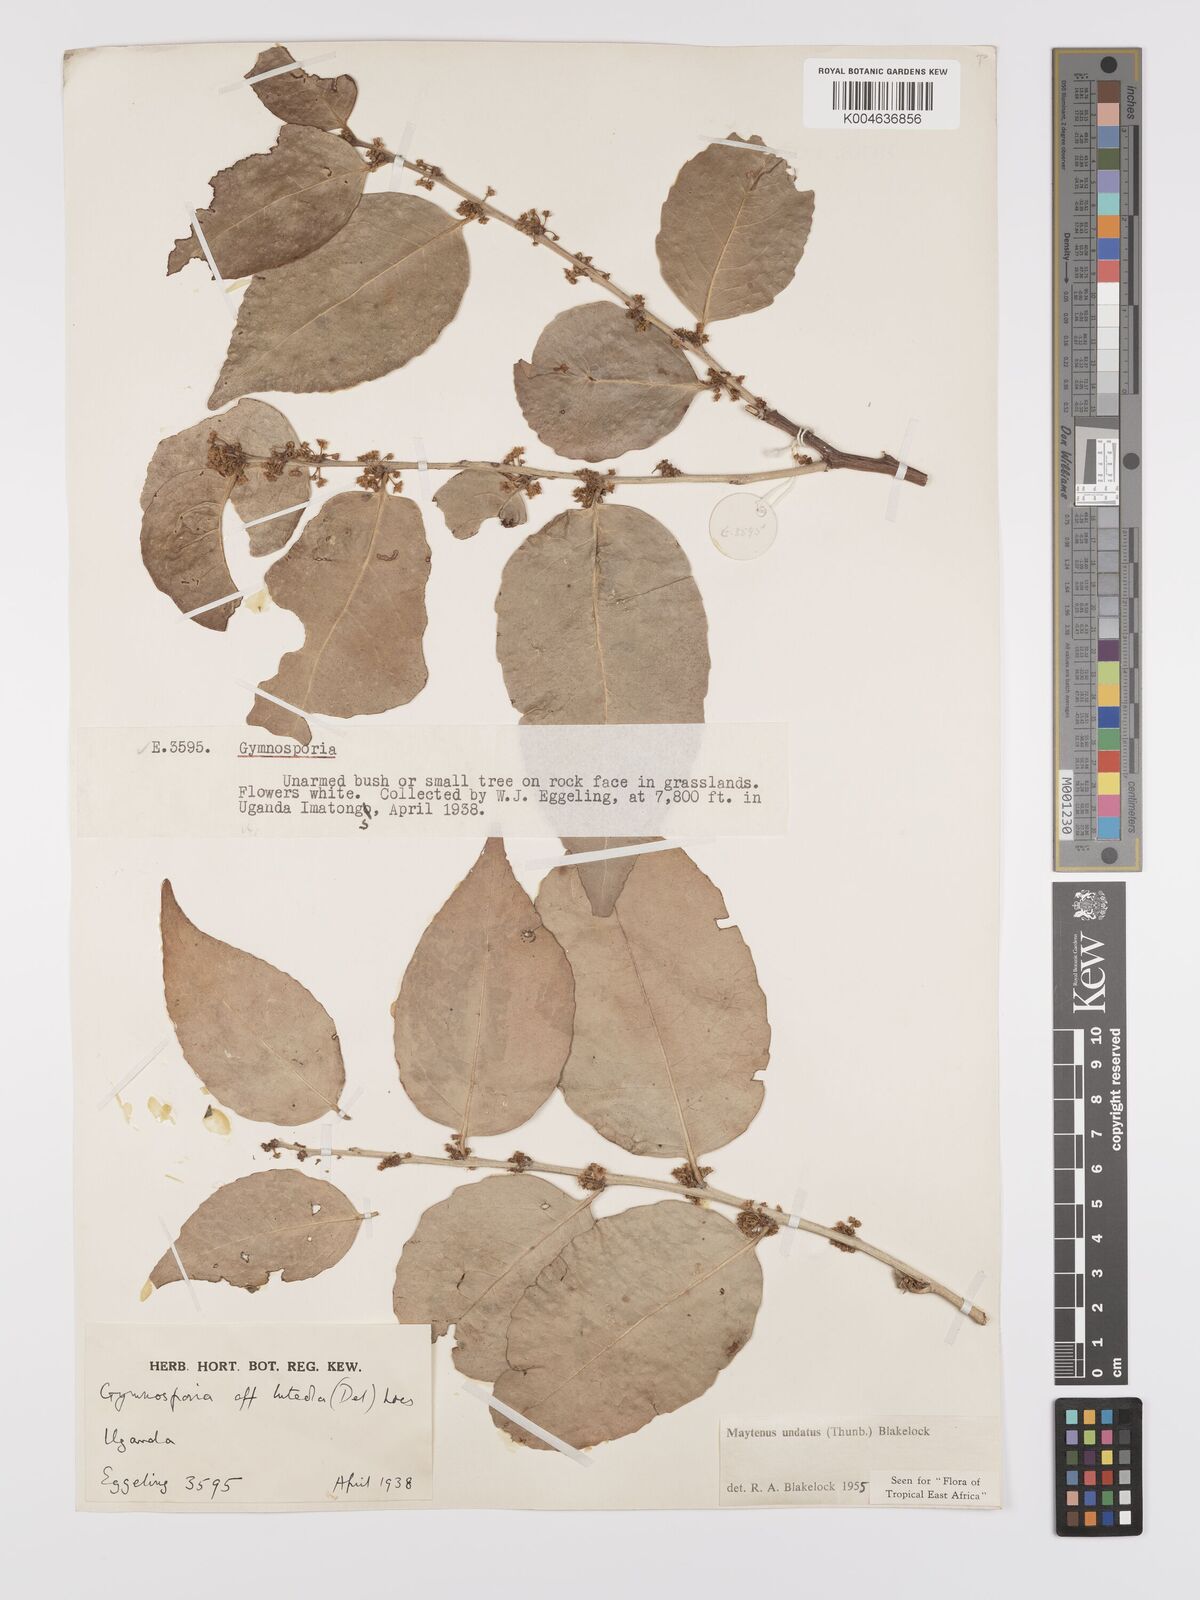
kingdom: Plantae
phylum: Tracheophyta
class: Magnoliopsida
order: Celastrales
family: Celastraceae
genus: Gymnosporia
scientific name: Gymnosporia undata
